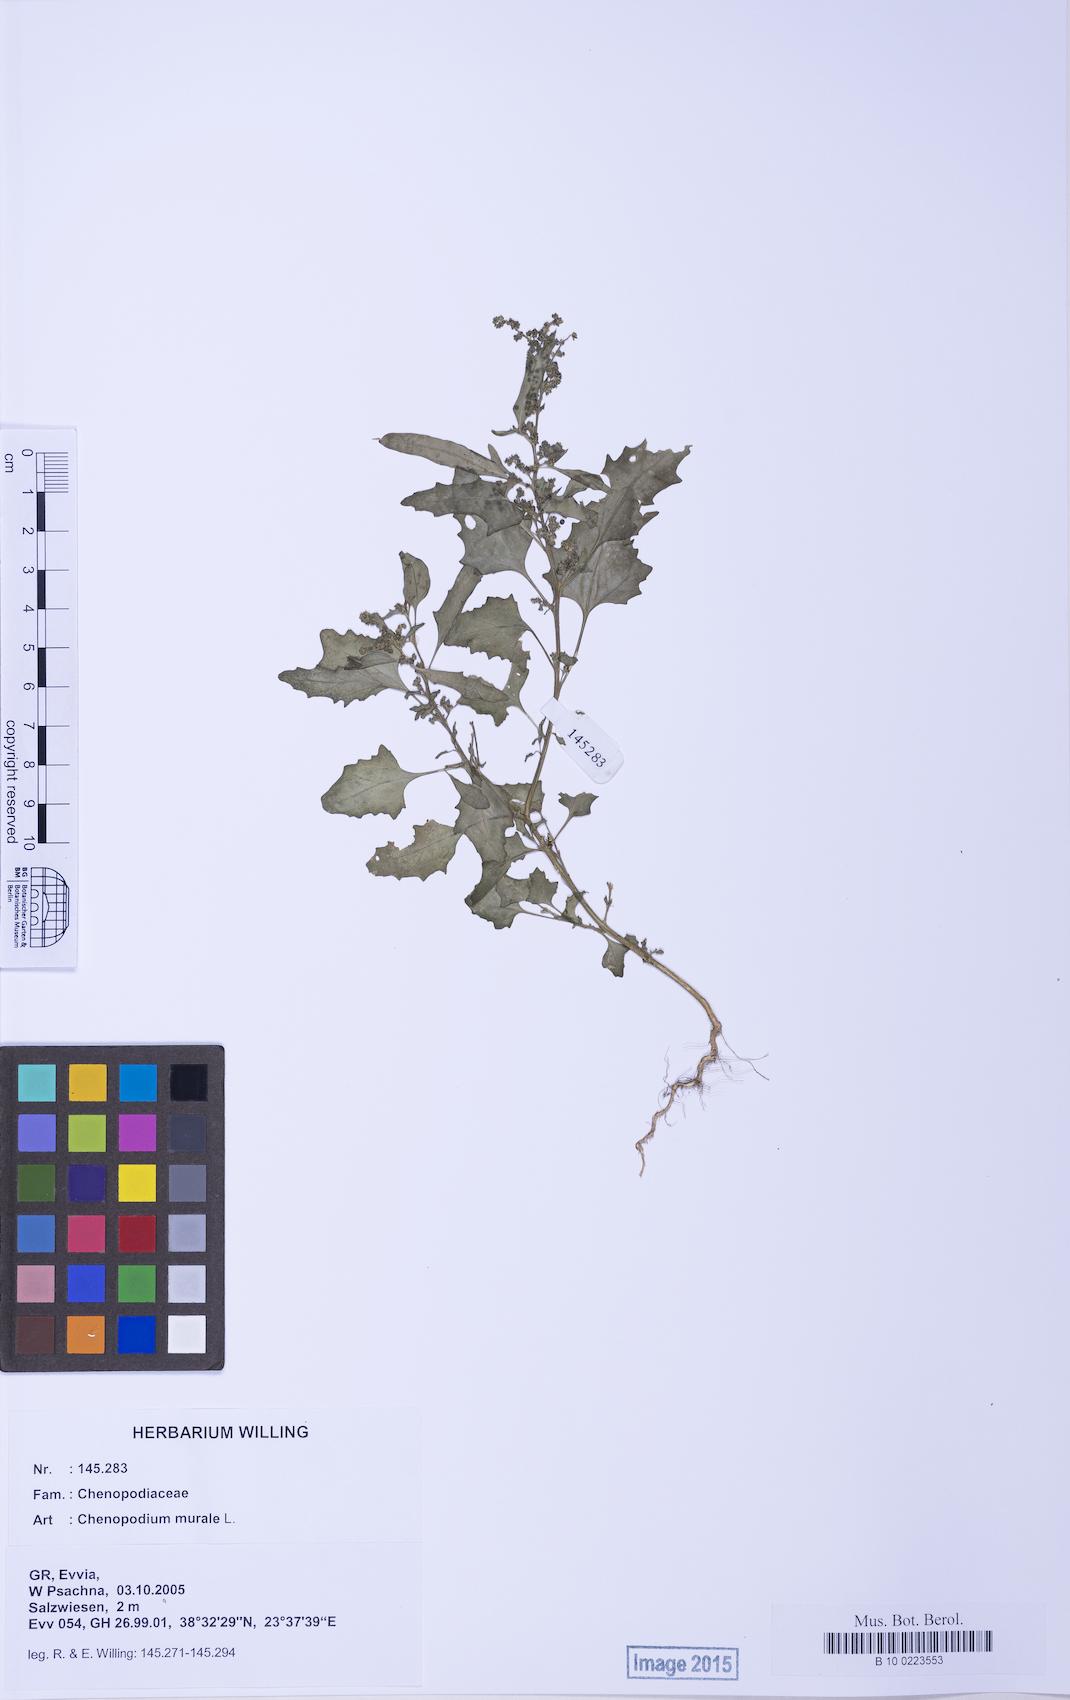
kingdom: Plantae
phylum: Tracheophyta
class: Magnoliopsida
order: Caryophyllales
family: Amaranthaceae
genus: Chenopodiastrum
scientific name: Chenopodiastrum murale
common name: Sowbane
